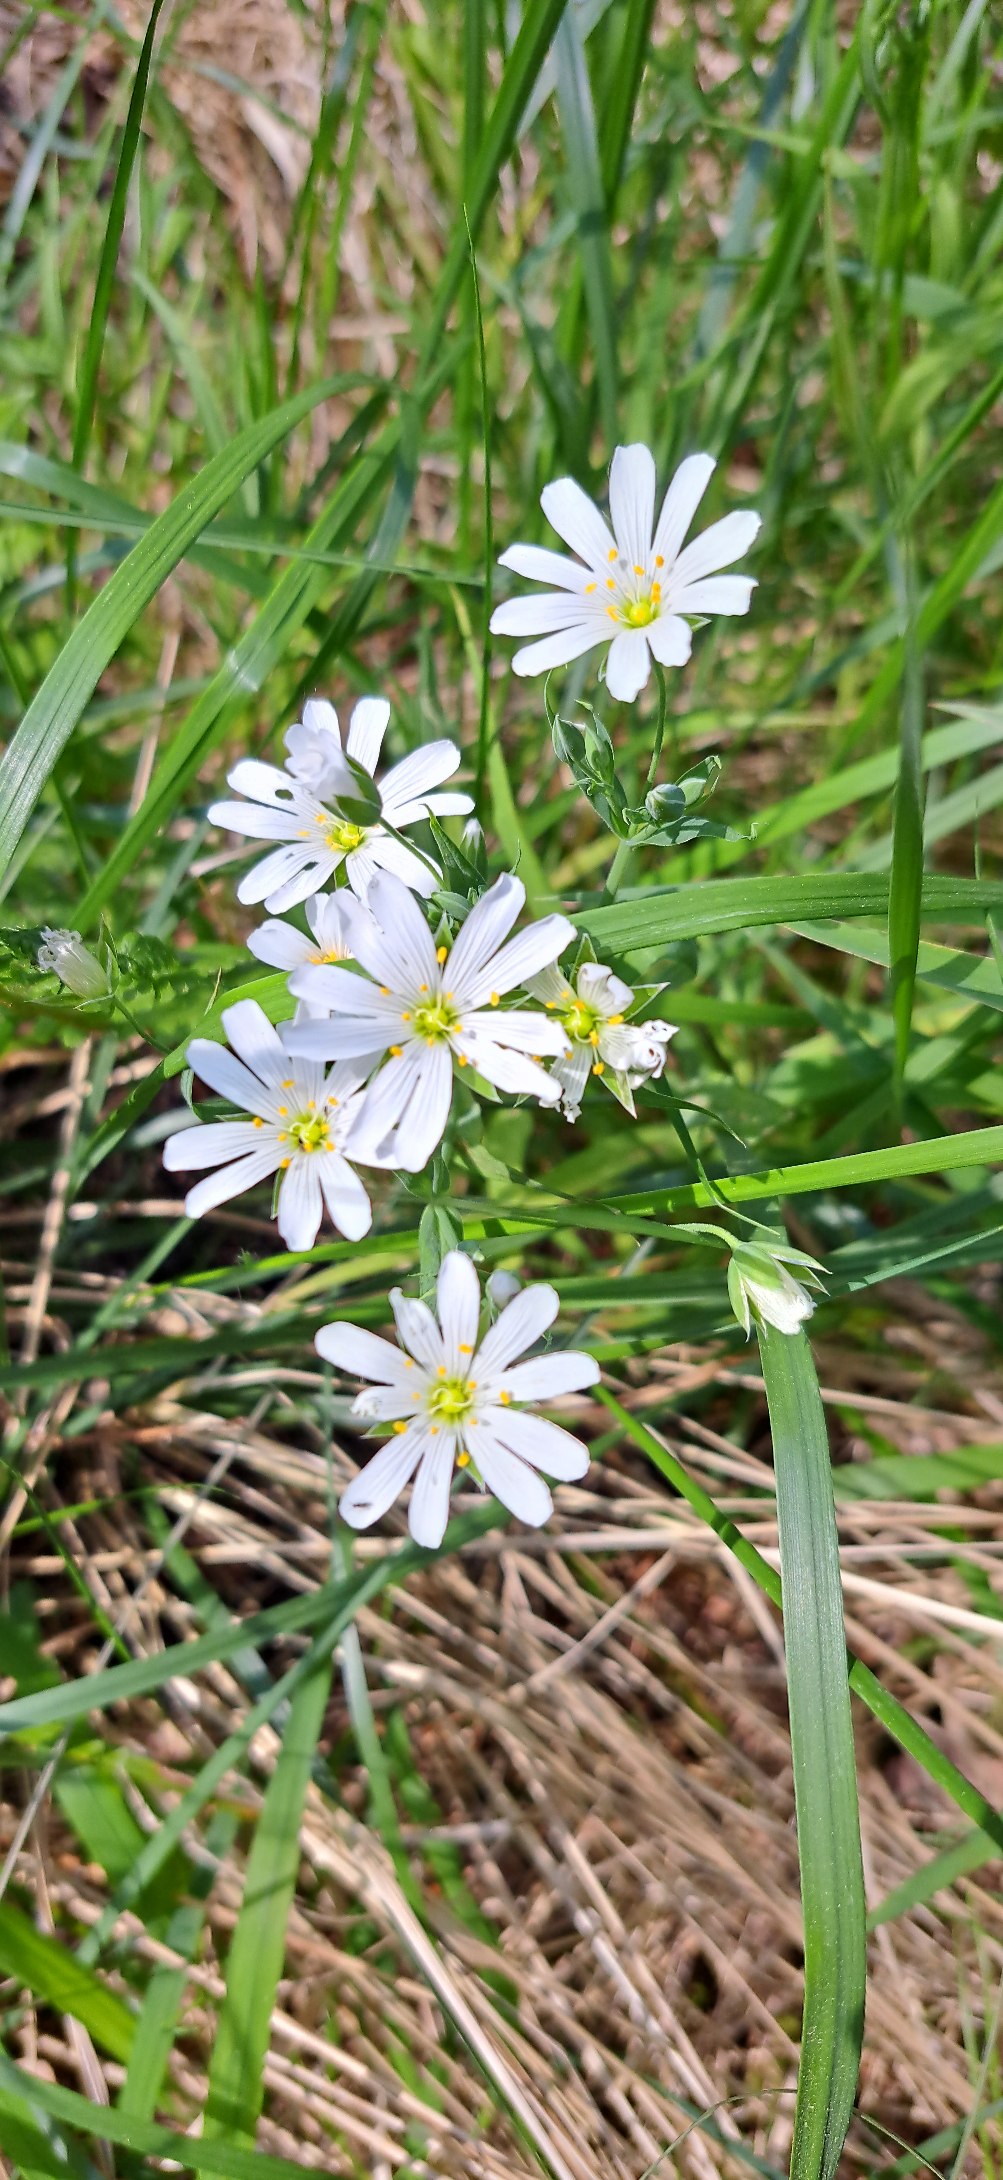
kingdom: Plantae
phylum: Tracheophyta
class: Magnoliopsida
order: Caryophyllales
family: Caryophyllaceae
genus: Rabelera
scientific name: Rabelera holostea
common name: Stor fladstjerne
